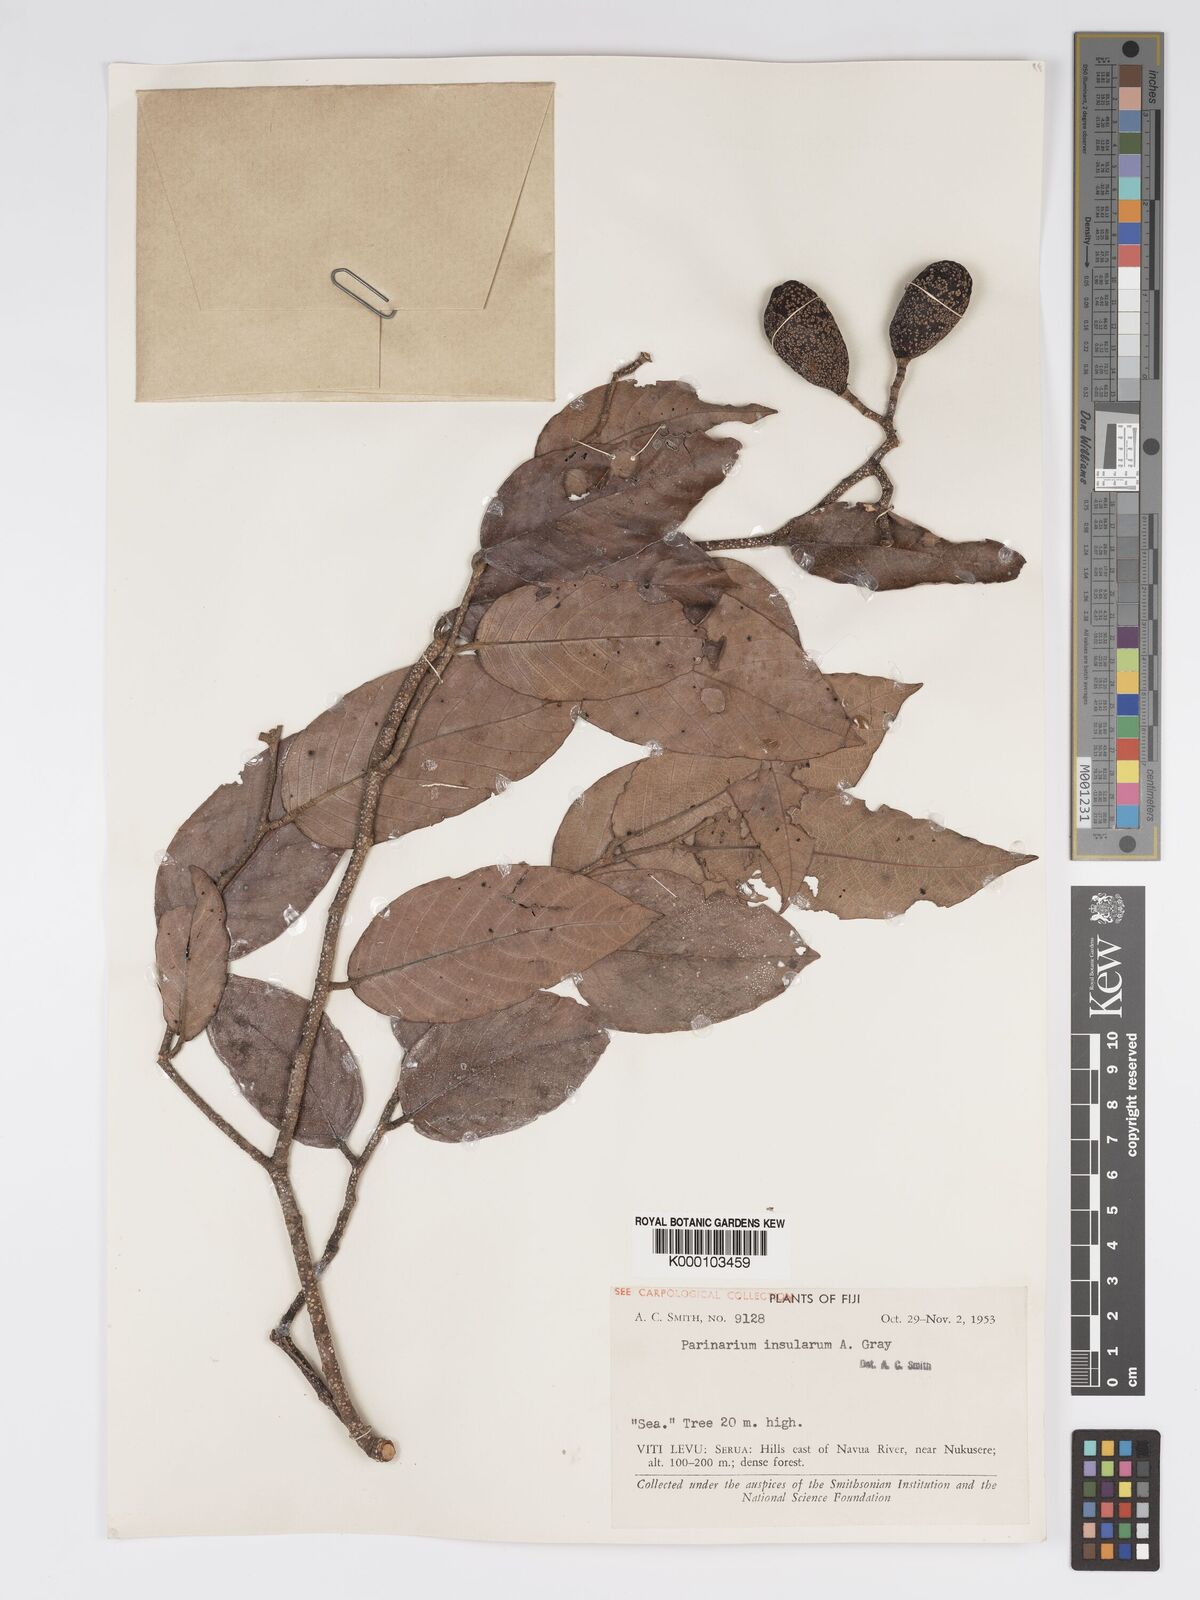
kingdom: Plantae
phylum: Tracheophyta
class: Magnoliopsida
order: Malpighiales
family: Chrysobalanaceae
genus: Parinari
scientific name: Parinari insularum
